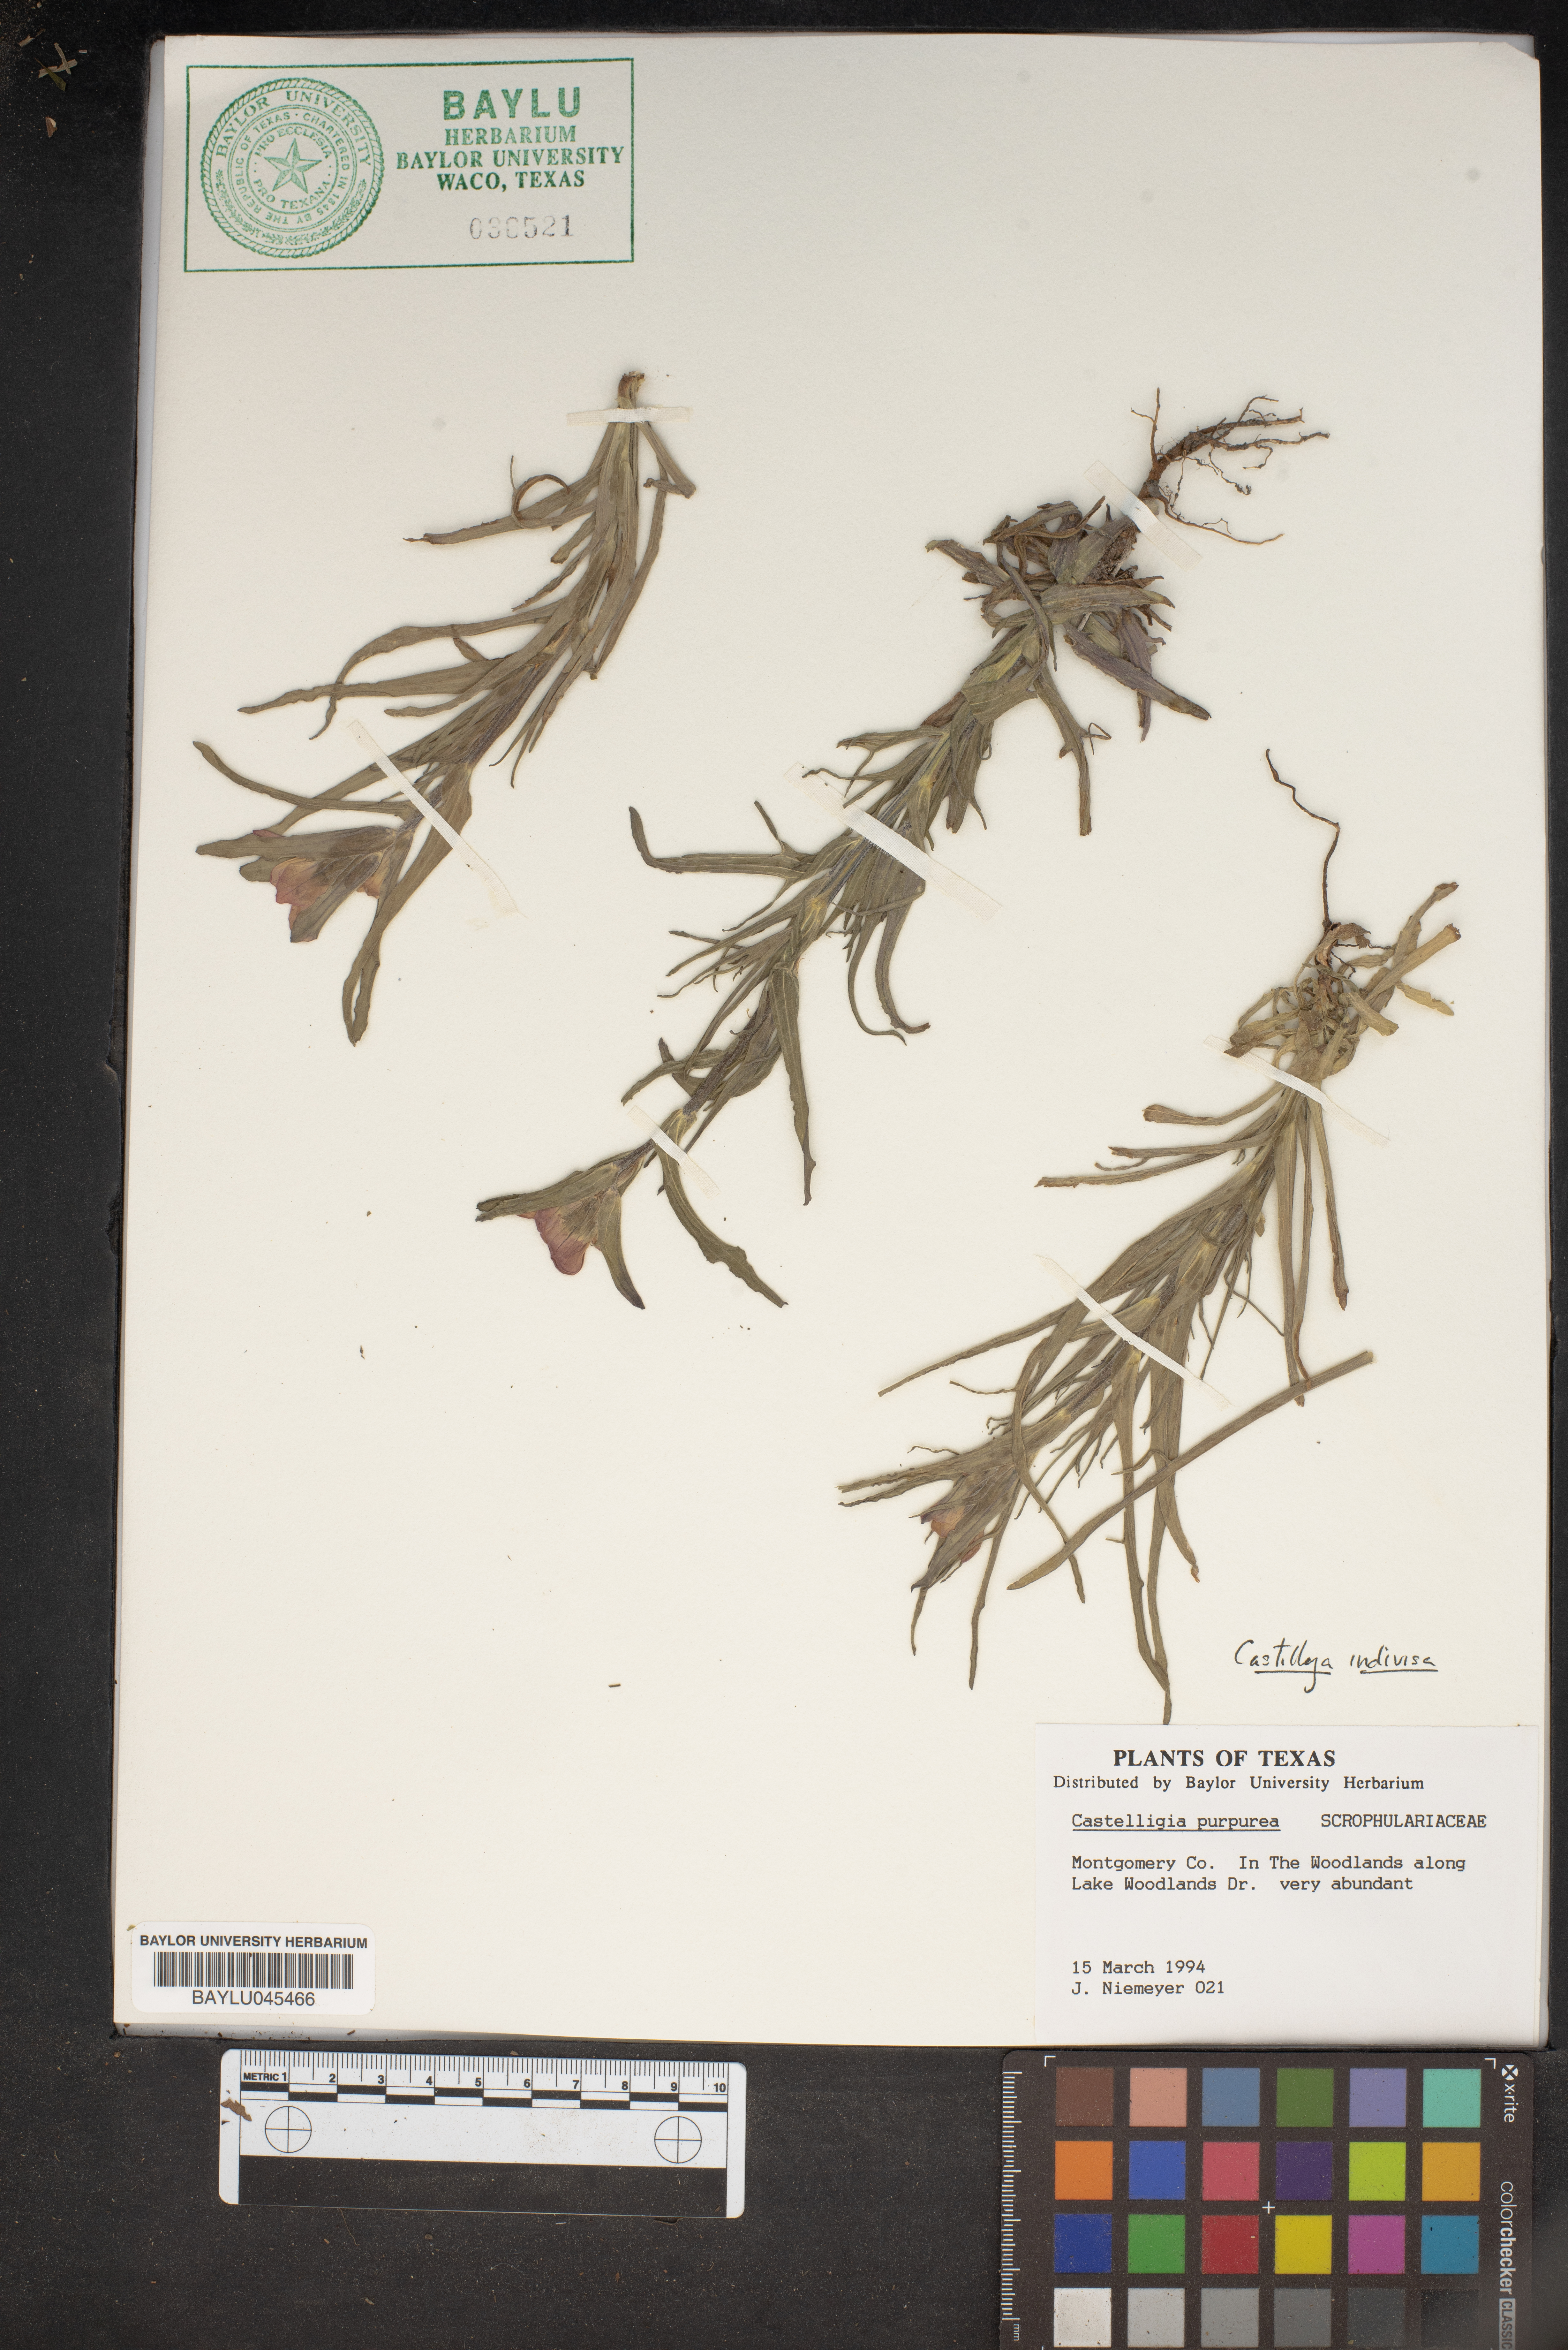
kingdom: Plantae
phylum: Tracheophyta
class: Magnoliopsida
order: Lamiales
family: Orobanchaceae
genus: Castilleja
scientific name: Castilleja purpurea
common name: Plains paintbrush
